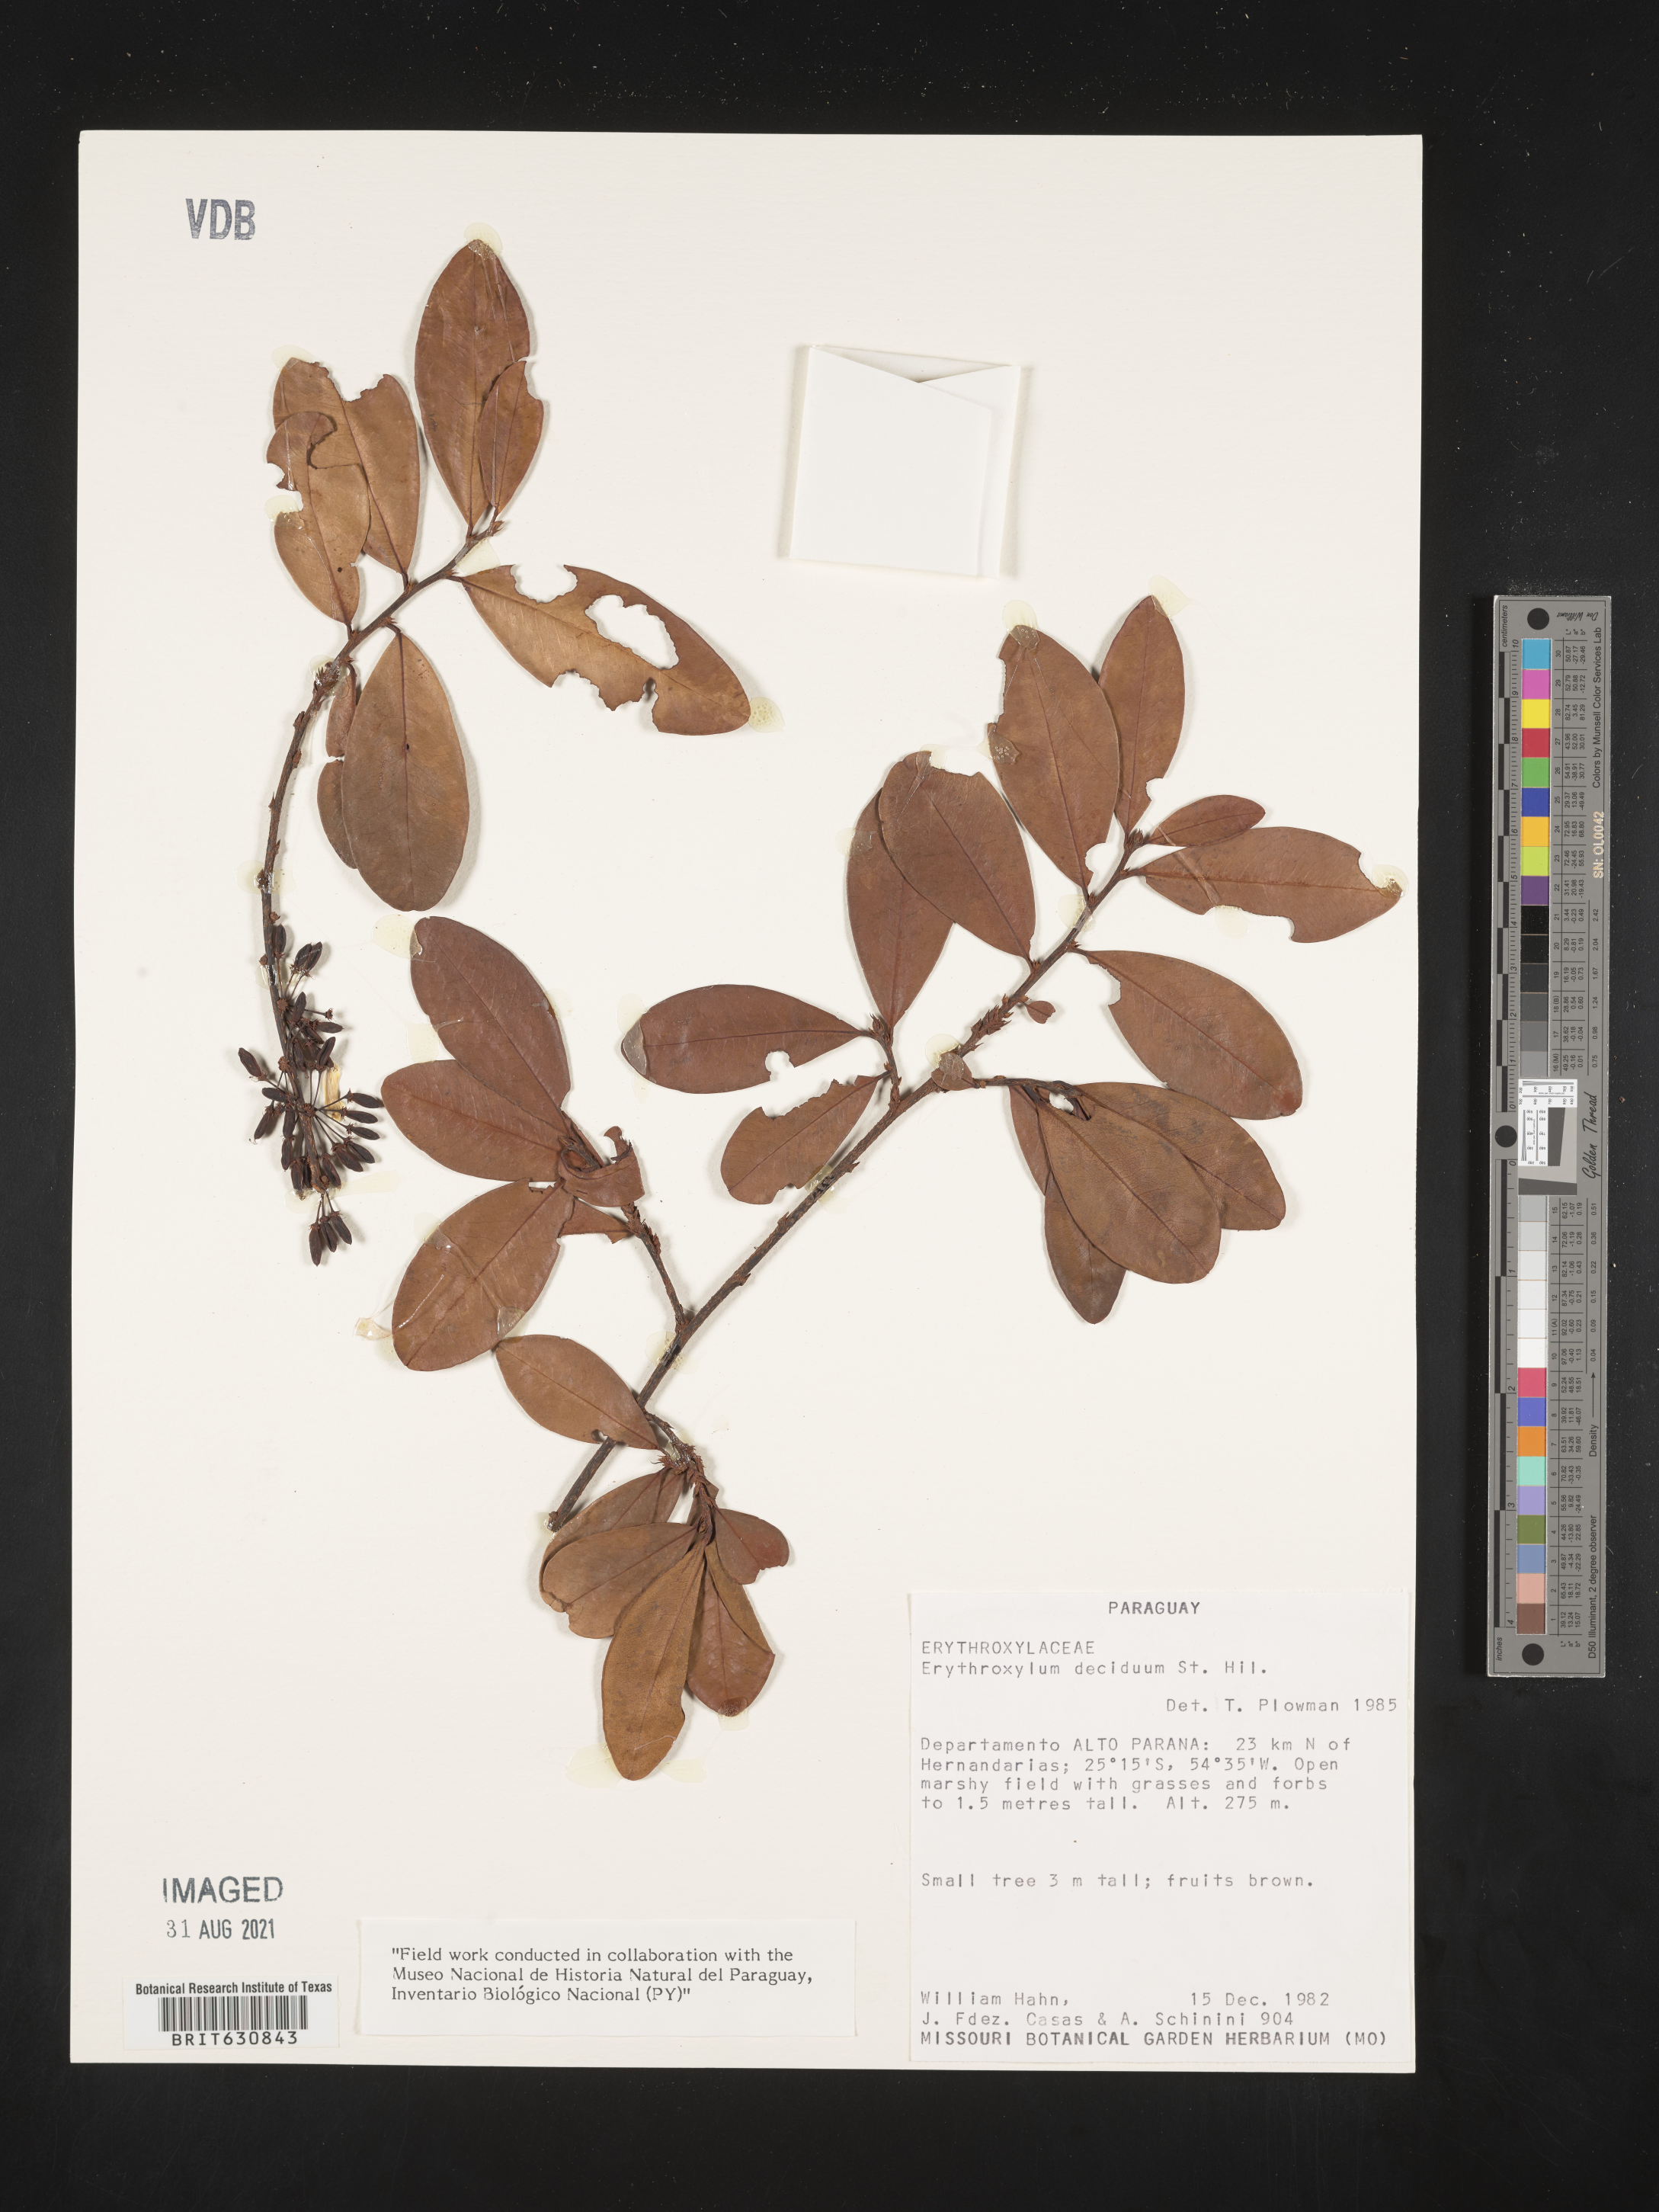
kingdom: Plantae
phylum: Tracheophyta
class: Magnoliopsida
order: Malpighiales
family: Erythroxylaceae
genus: Erythroxylum
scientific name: Erythroxylum
